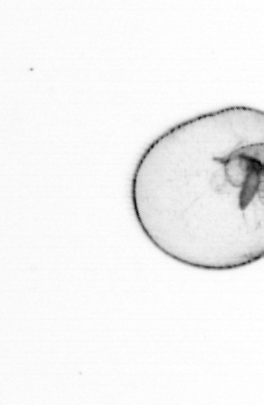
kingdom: Chromista
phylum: Myzozoa
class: Dinophyceae
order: Noctilucales
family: Noctilucaceae
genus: Noctiluca
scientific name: Noctiluca scintillans
